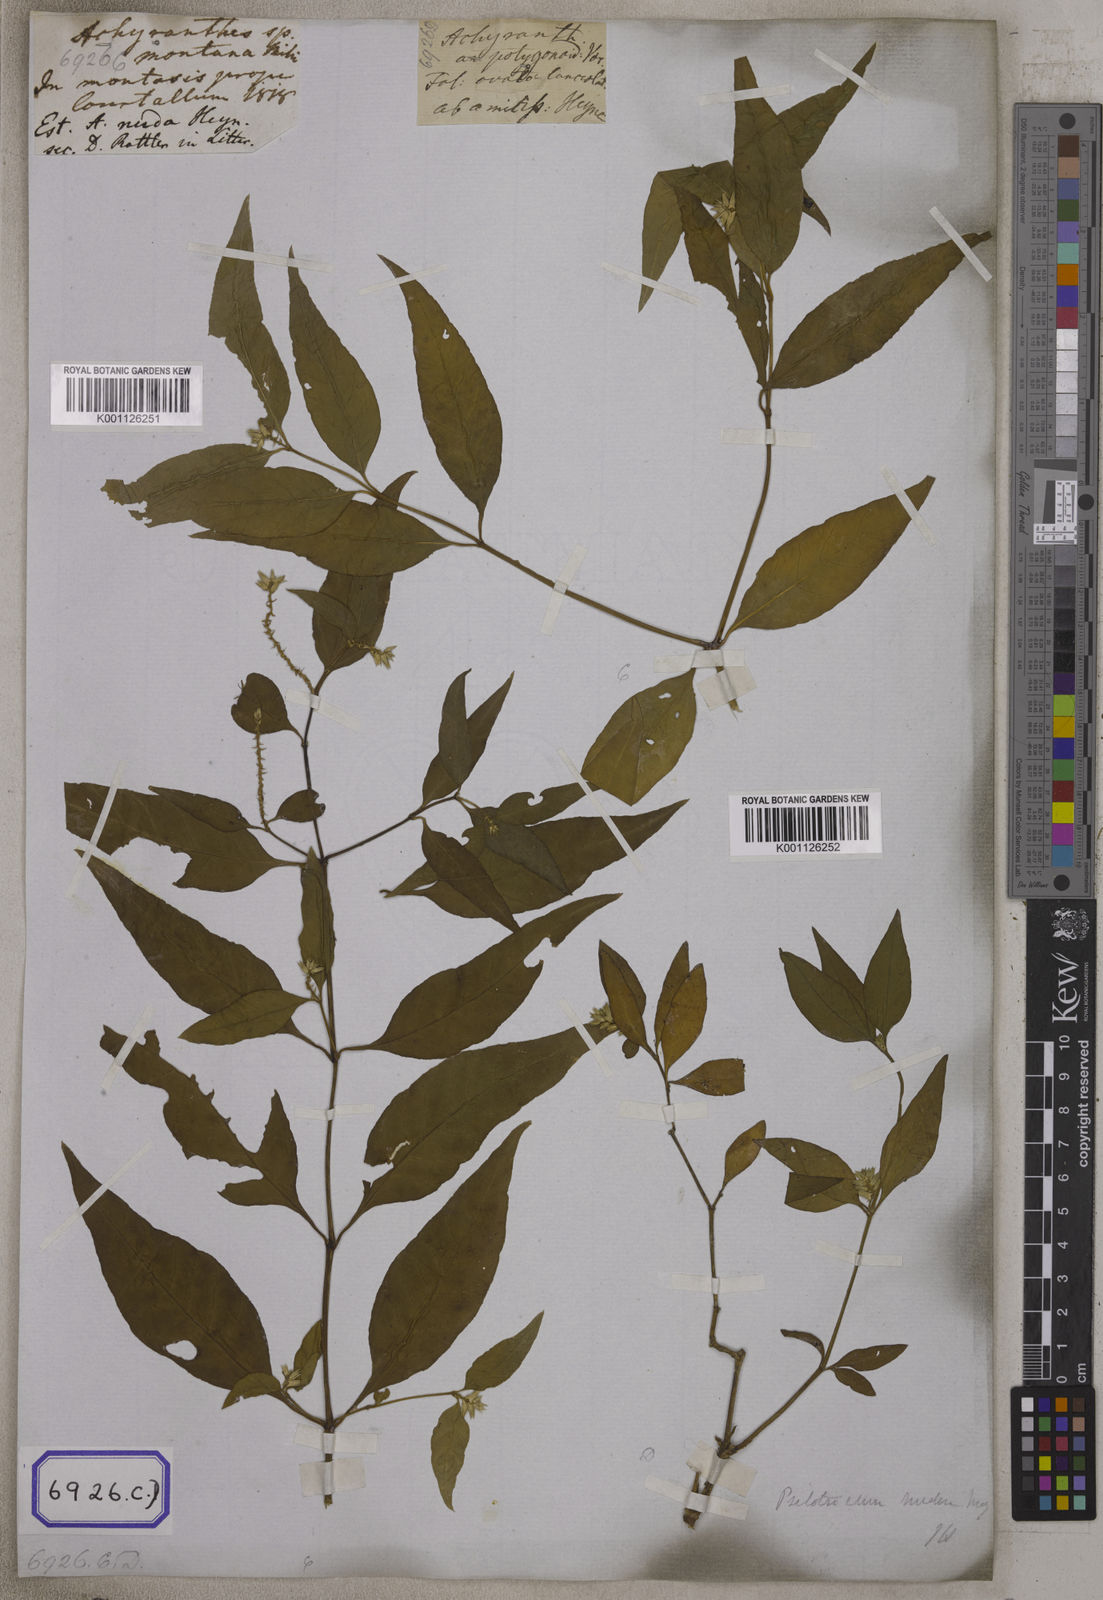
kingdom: Plantae
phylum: Tracheophyta
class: Magnoliopsida
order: Caryophyllales
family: Amaranthaceae
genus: Psilotrichum
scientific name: Psilotrichum nudum
